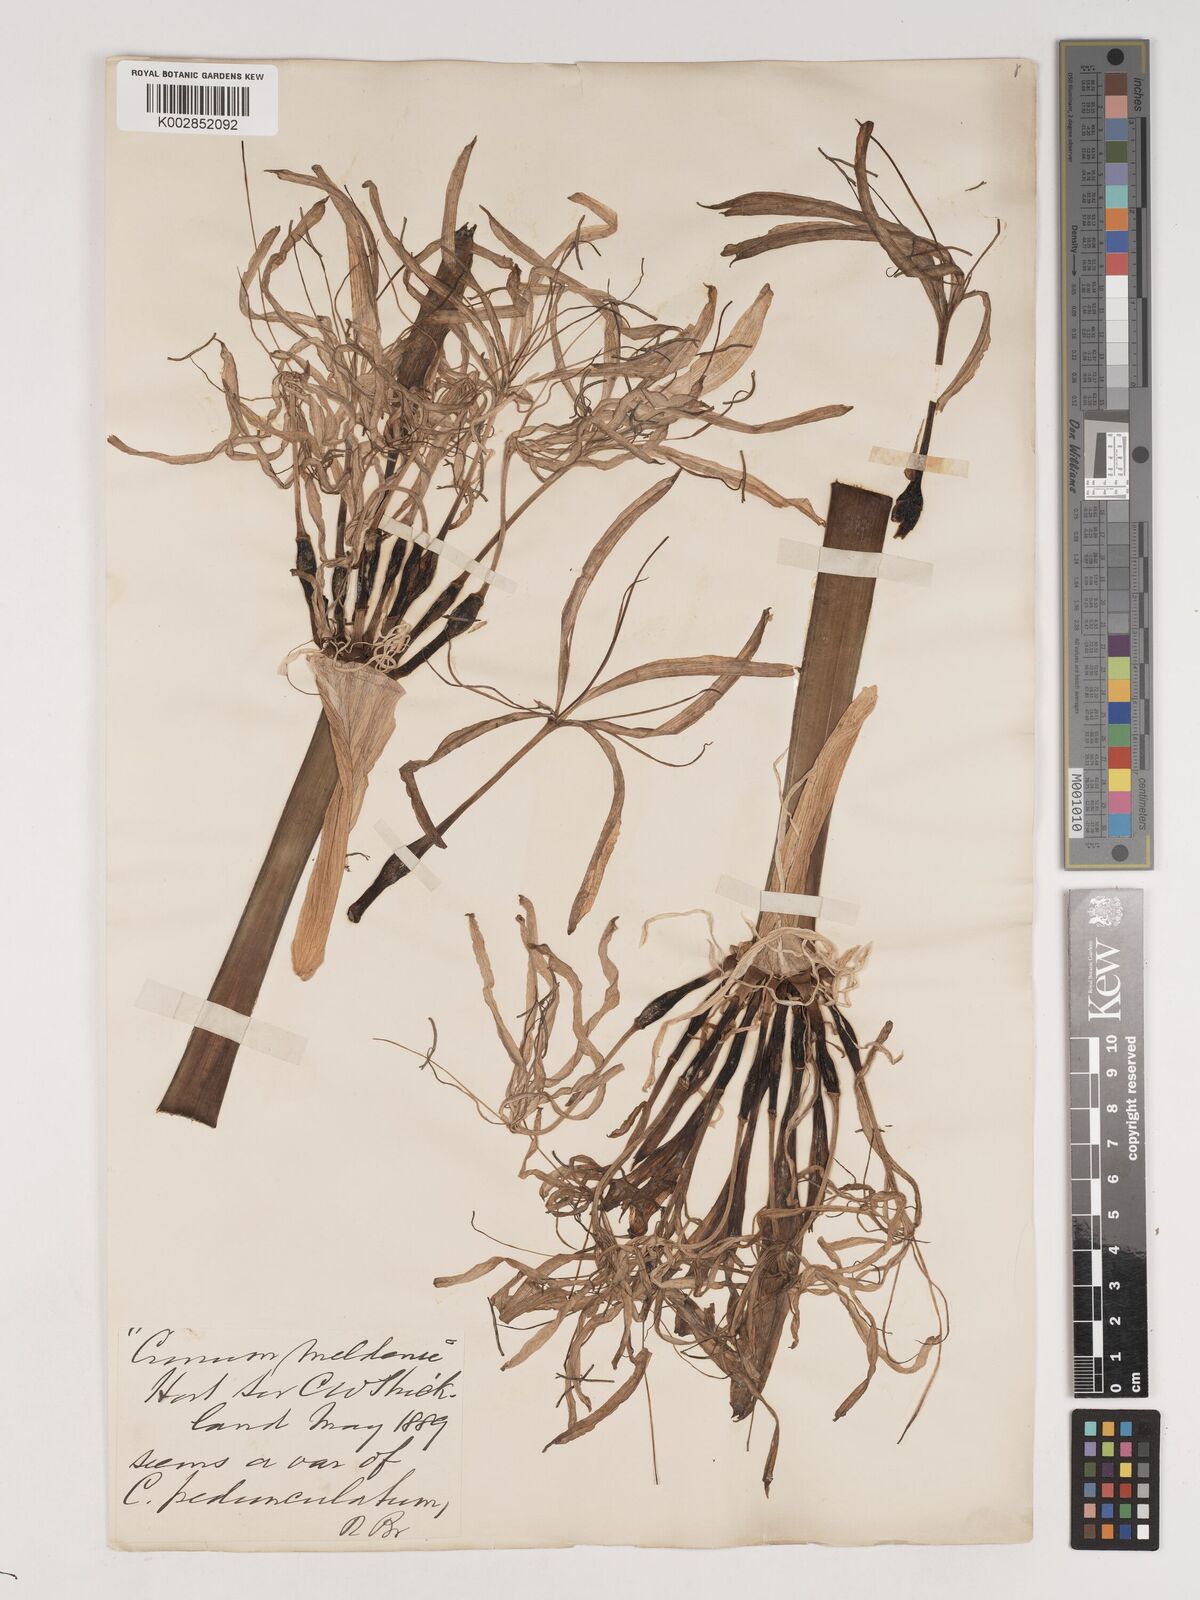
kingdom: Plantae
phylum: Tracheophyta
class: Liliopsida
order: Asparagales
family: Amaryllidaceae
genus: Crinum
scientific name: Crinum asiaticum
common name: Poisonbulb
